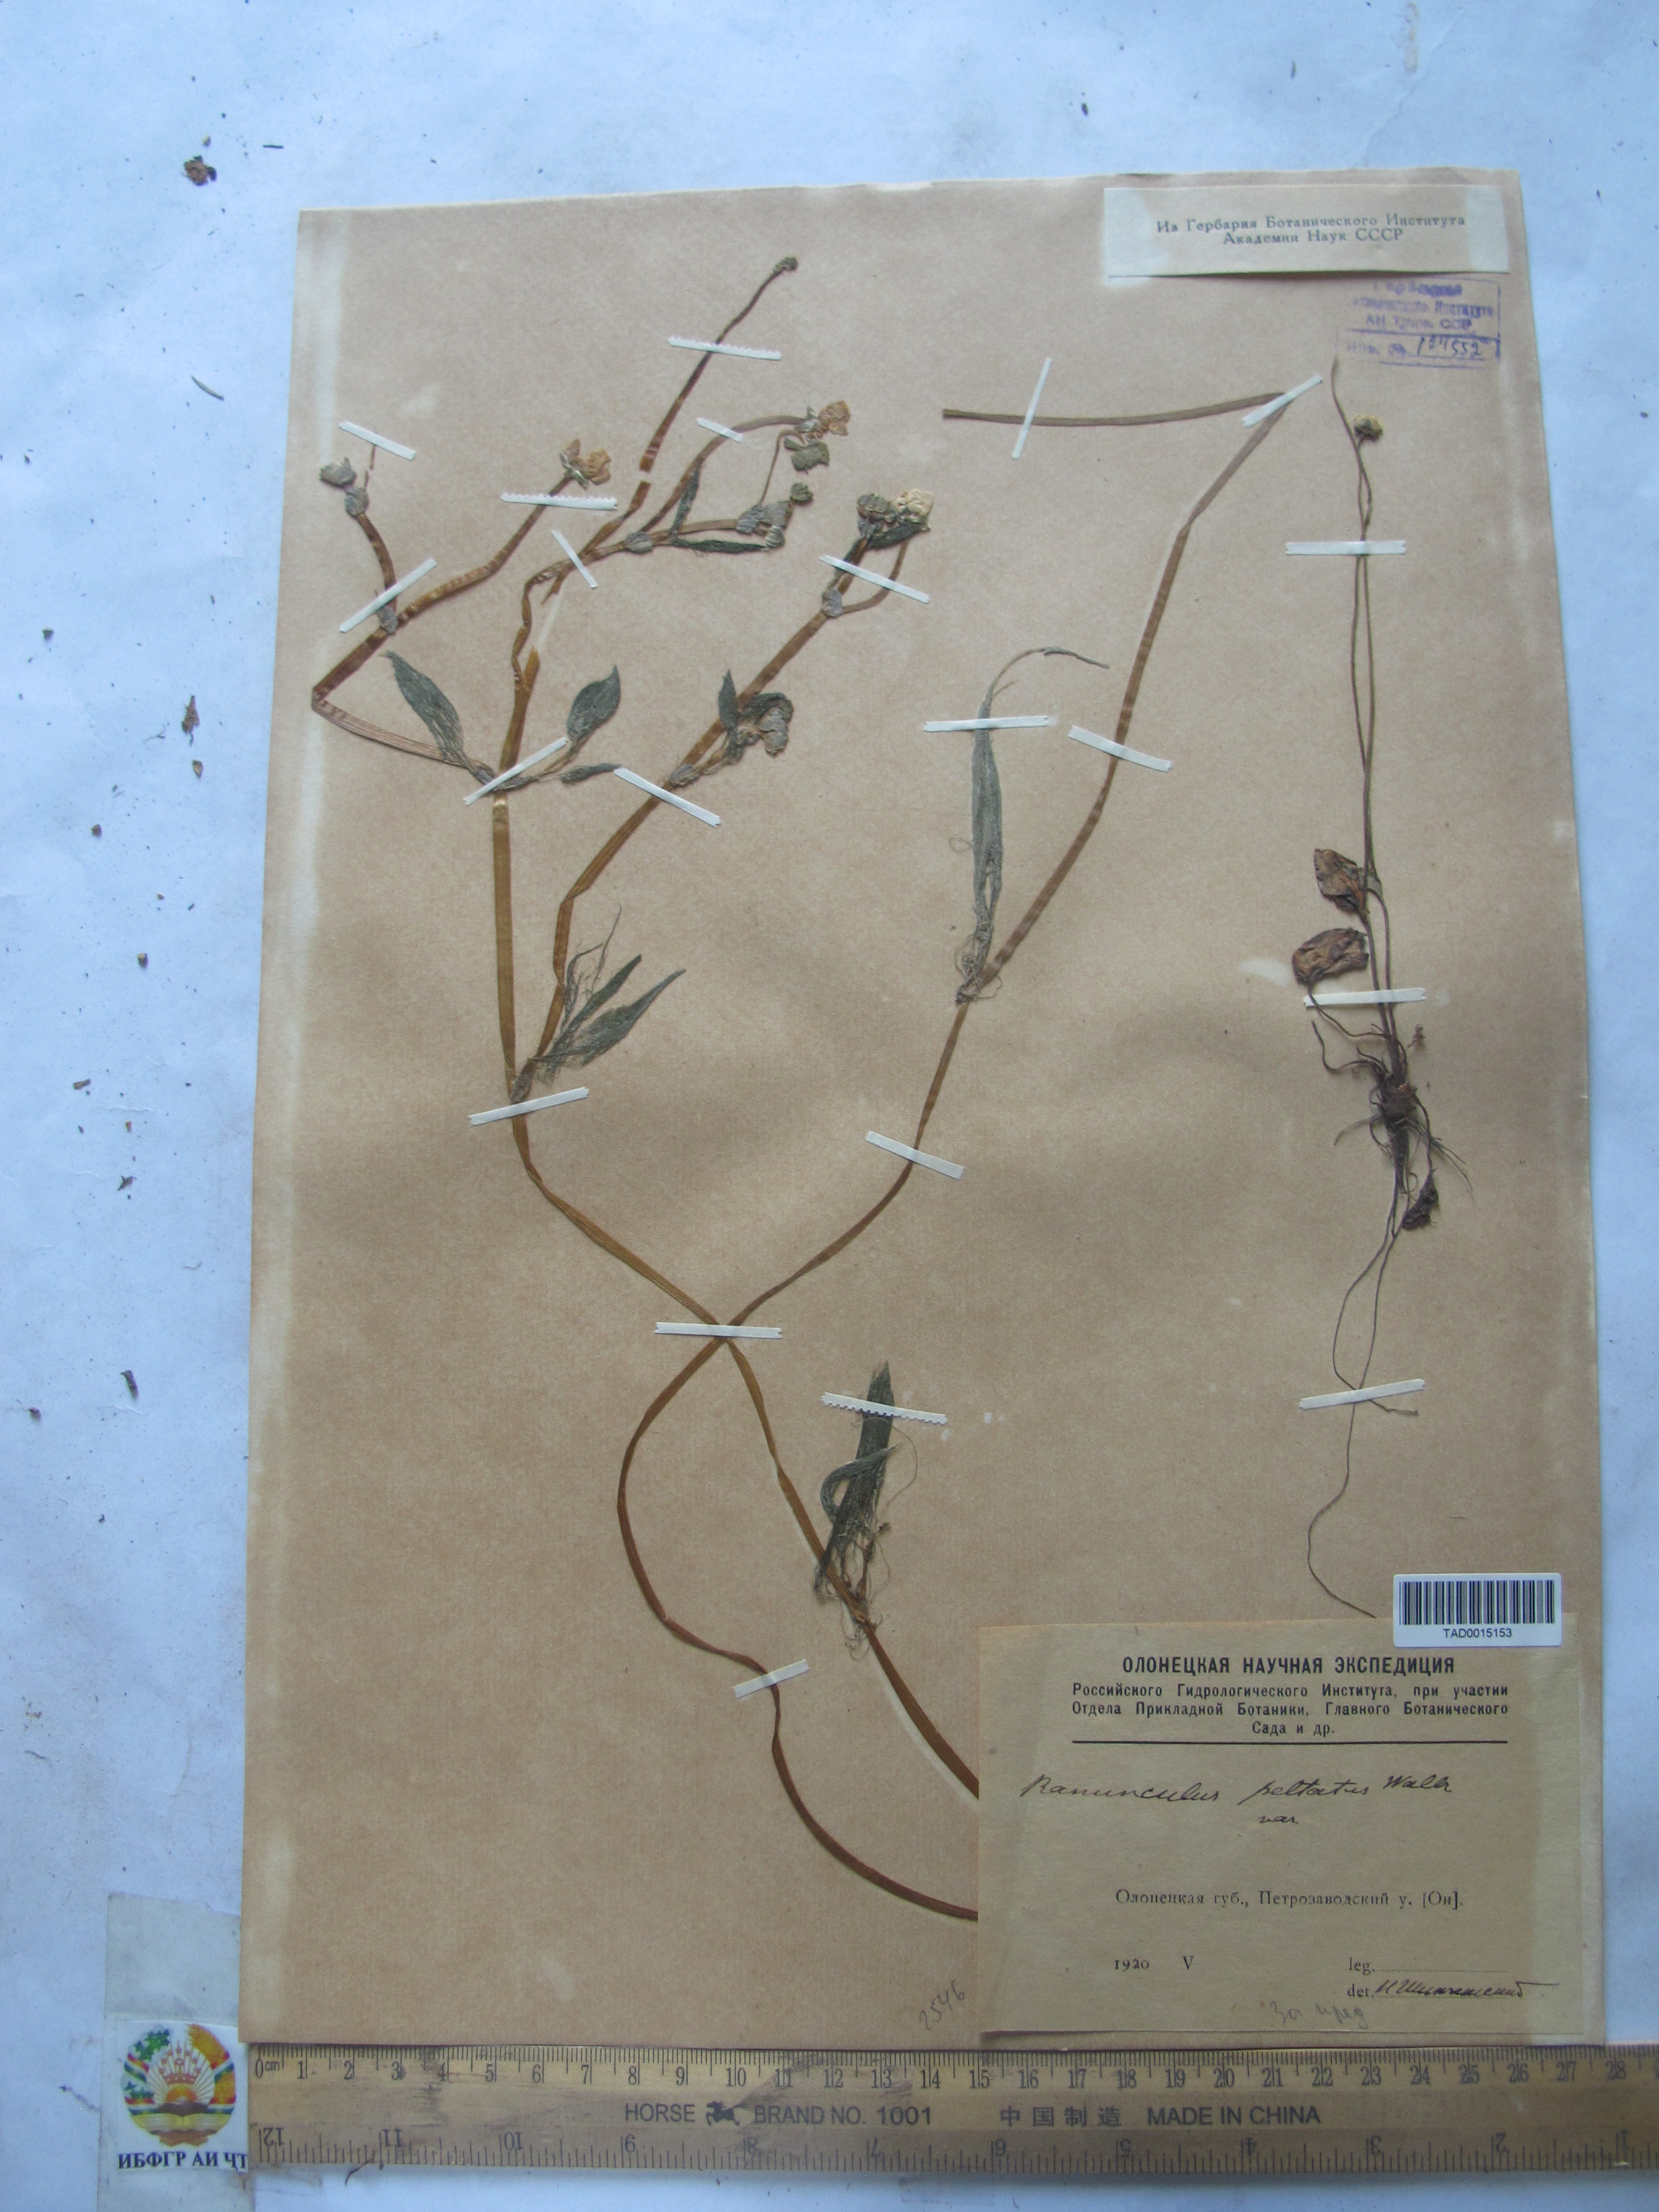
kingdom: Plantae
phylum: Tracheophyta
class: Magnoliopsida
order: Ranunculales
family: Ranunculaceae
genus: Ranunculus
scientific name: Ranunculus peltatus
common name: Pond water-crowfoot
